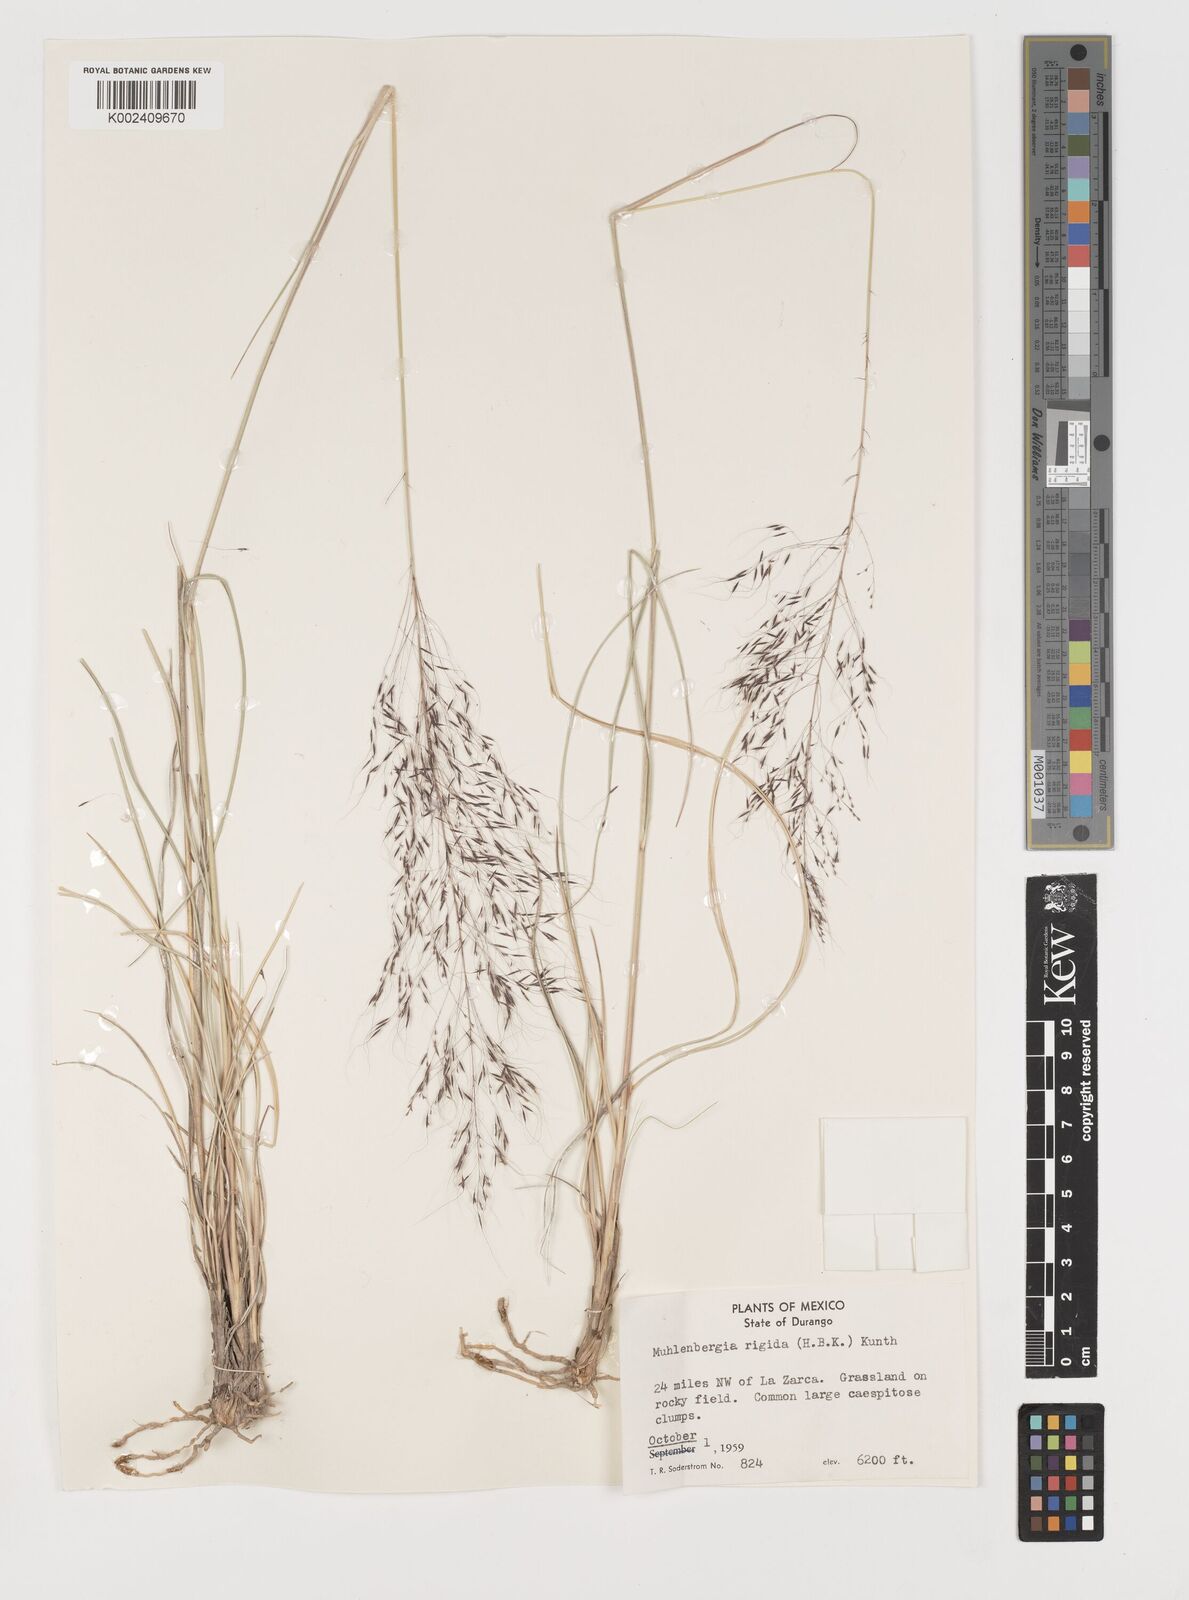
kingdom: Plantae
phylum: Tracheophyta
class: Liliopsida
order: Poales
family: Poaceae
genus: Muhlenbergia
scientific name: Muhlenbergia rigida
